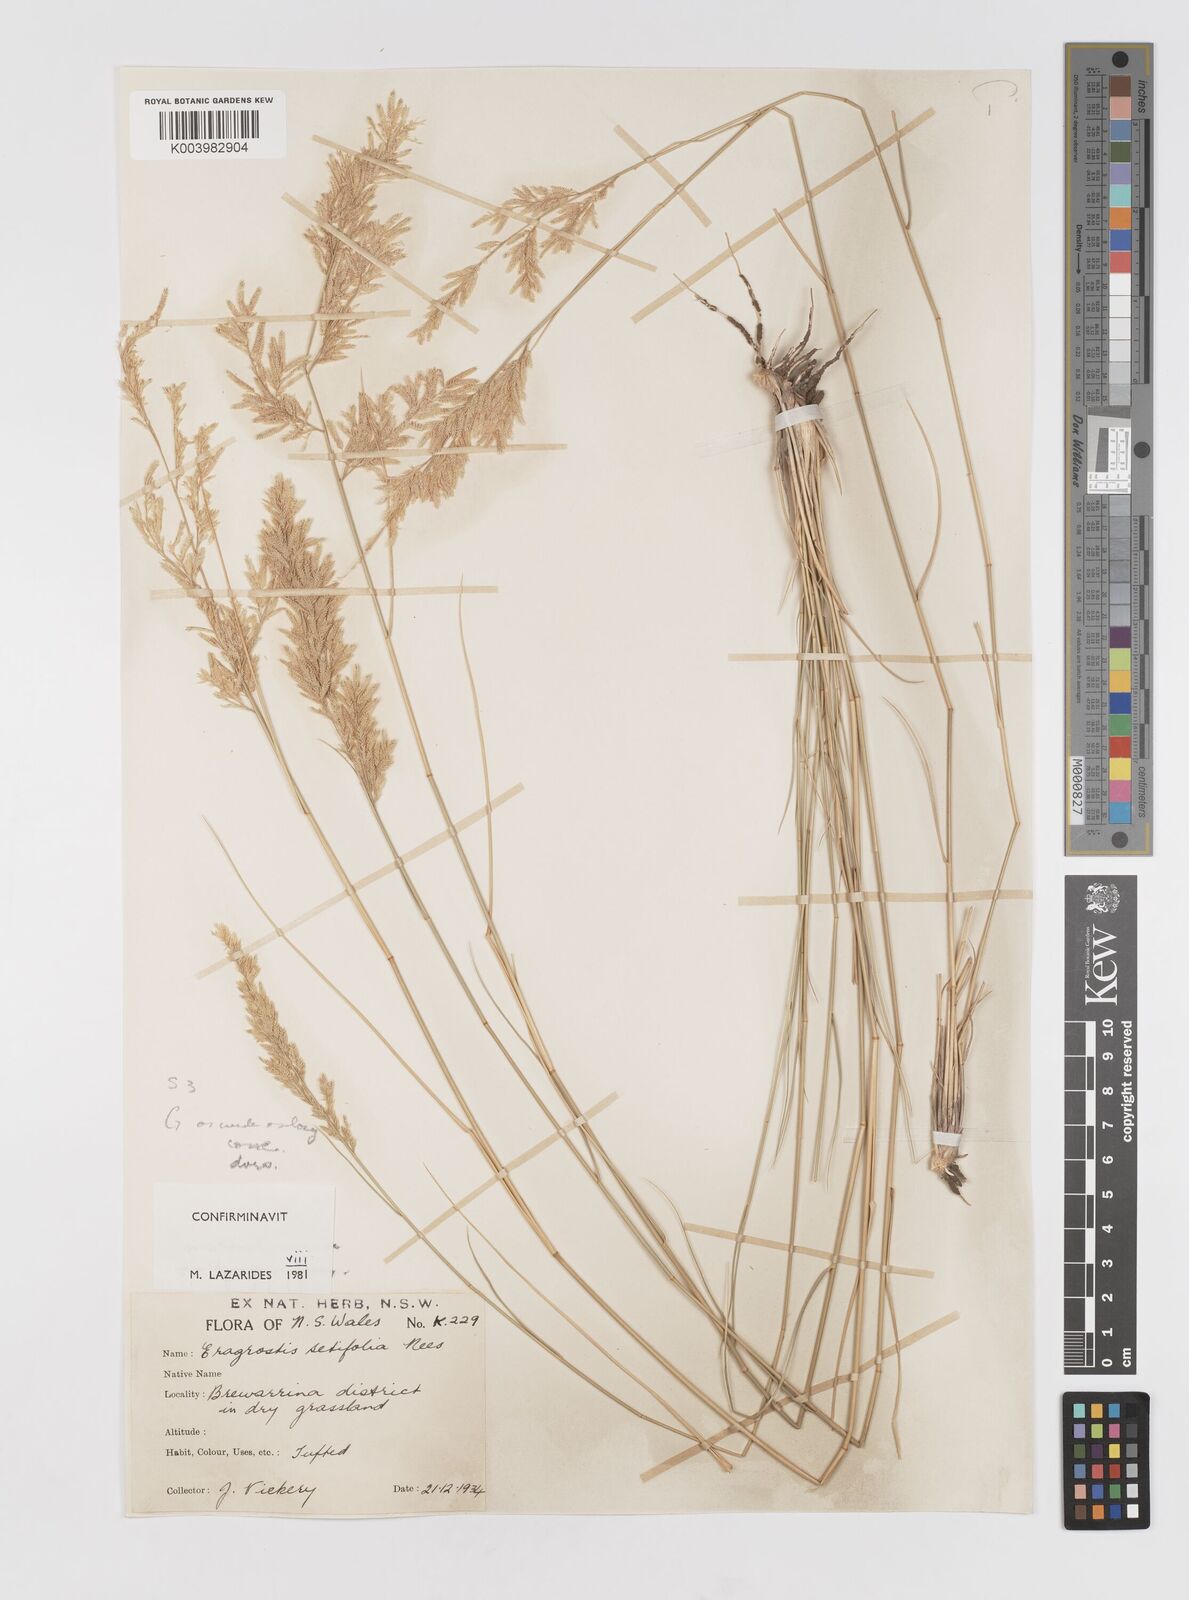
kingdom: Plantae
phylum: Tracheophyta
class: Liliopsida
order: Poales
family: Poaceae
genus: Eragrostis
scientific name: Eragrostis setifolia
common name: Bristleleaf lovegrass
